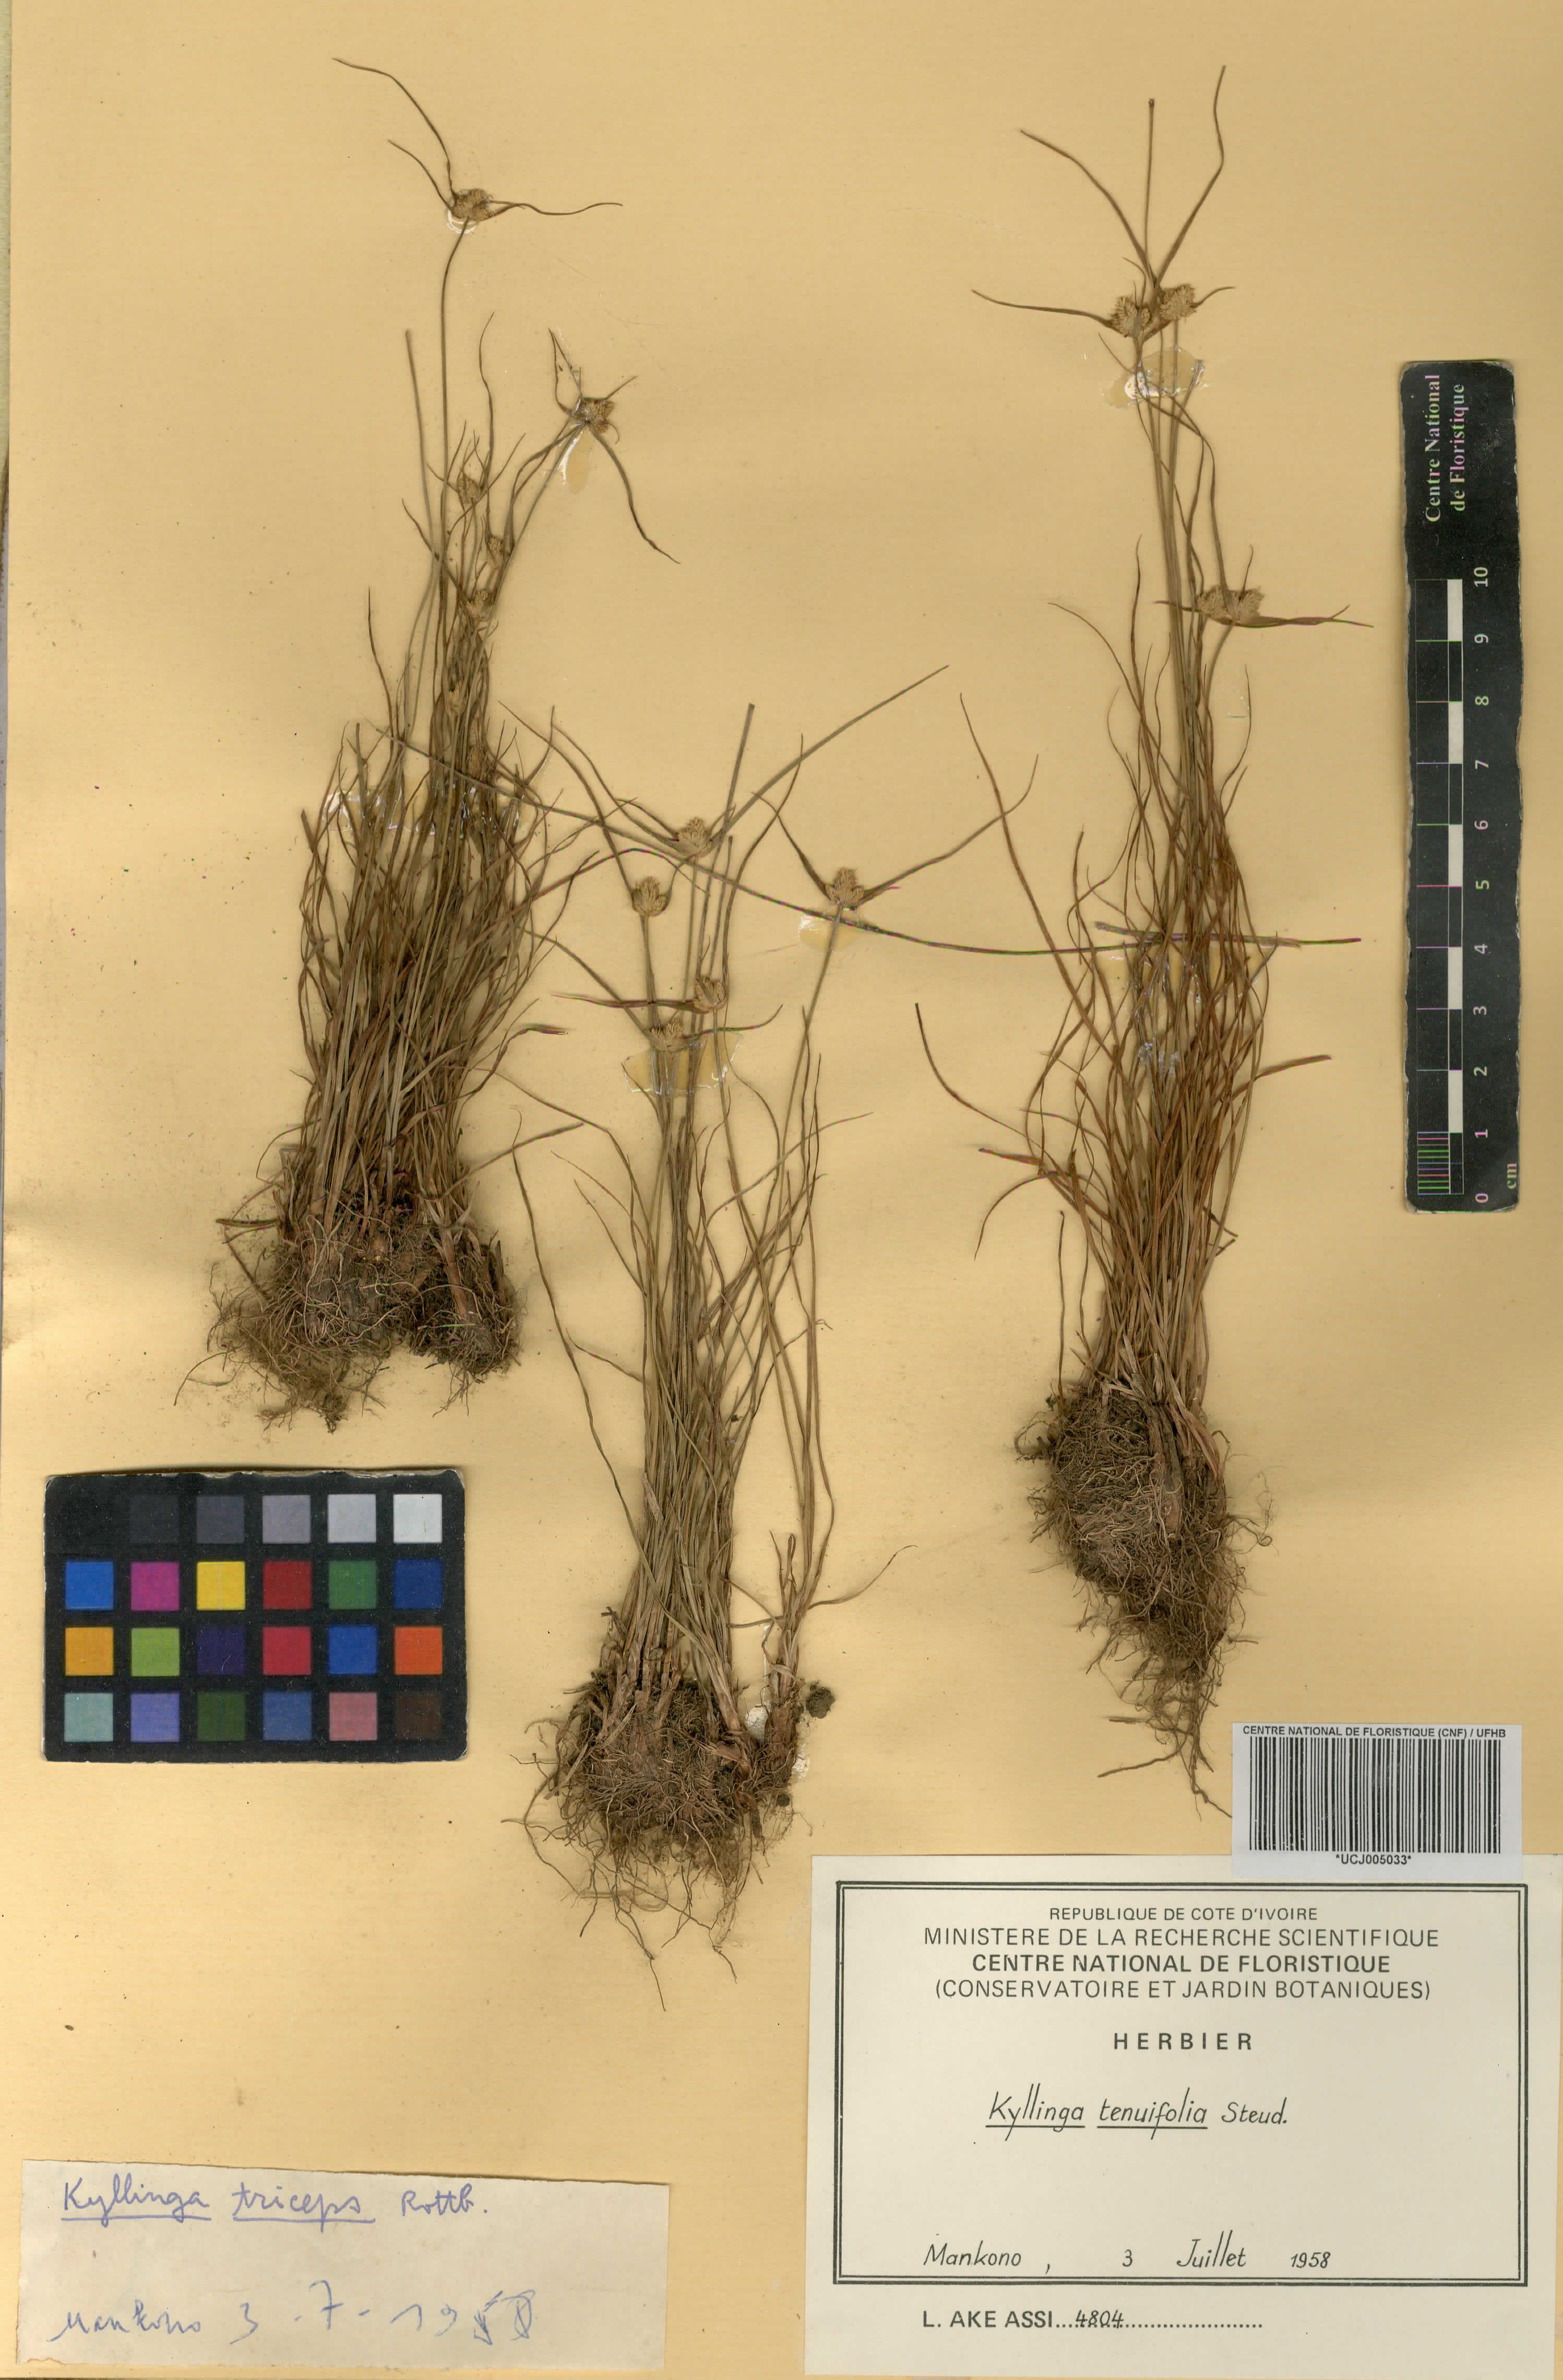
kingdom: Plantae
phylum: Tracheophyta
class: Liliopsida
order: Poales
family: Cyperaceae
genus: Cyperus
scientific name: Cyperus tenuifolius
